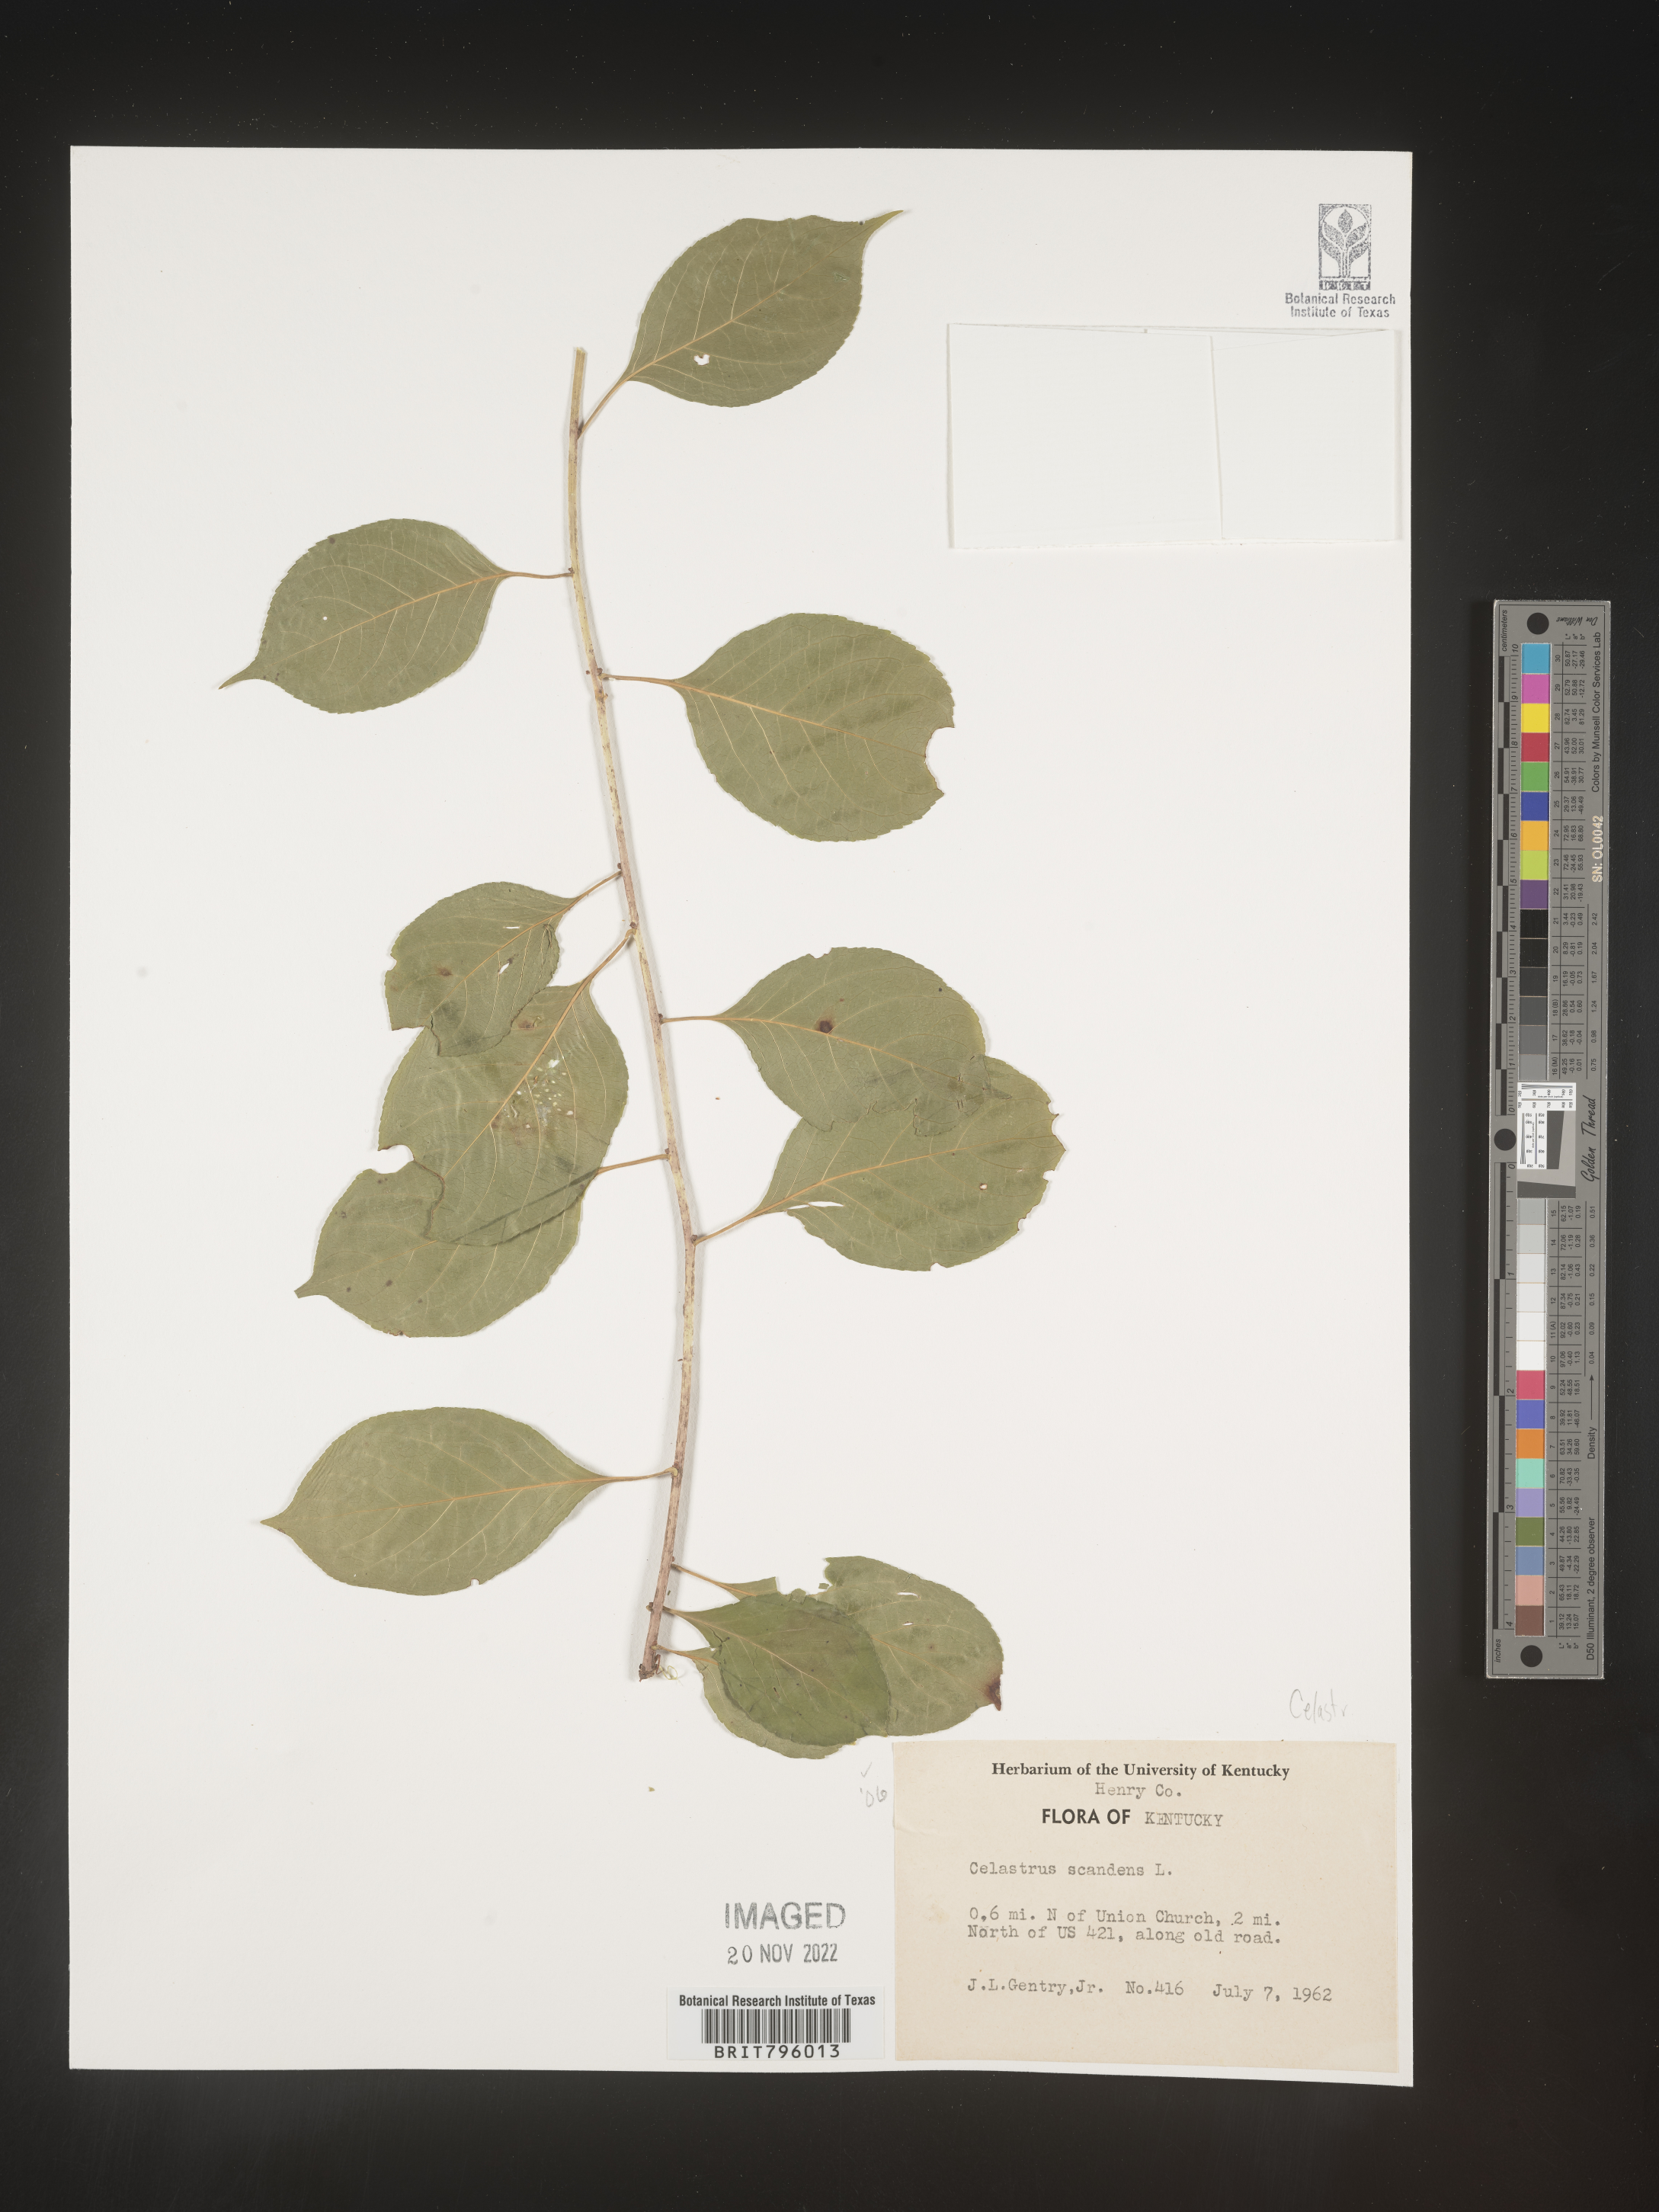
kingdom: Plantae
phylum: Tracheophyta
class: Magnoliopsida
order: Celastrales
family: Celastraceae
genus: Celastrus
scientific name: Celastrus scandens
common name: American bittersweet
